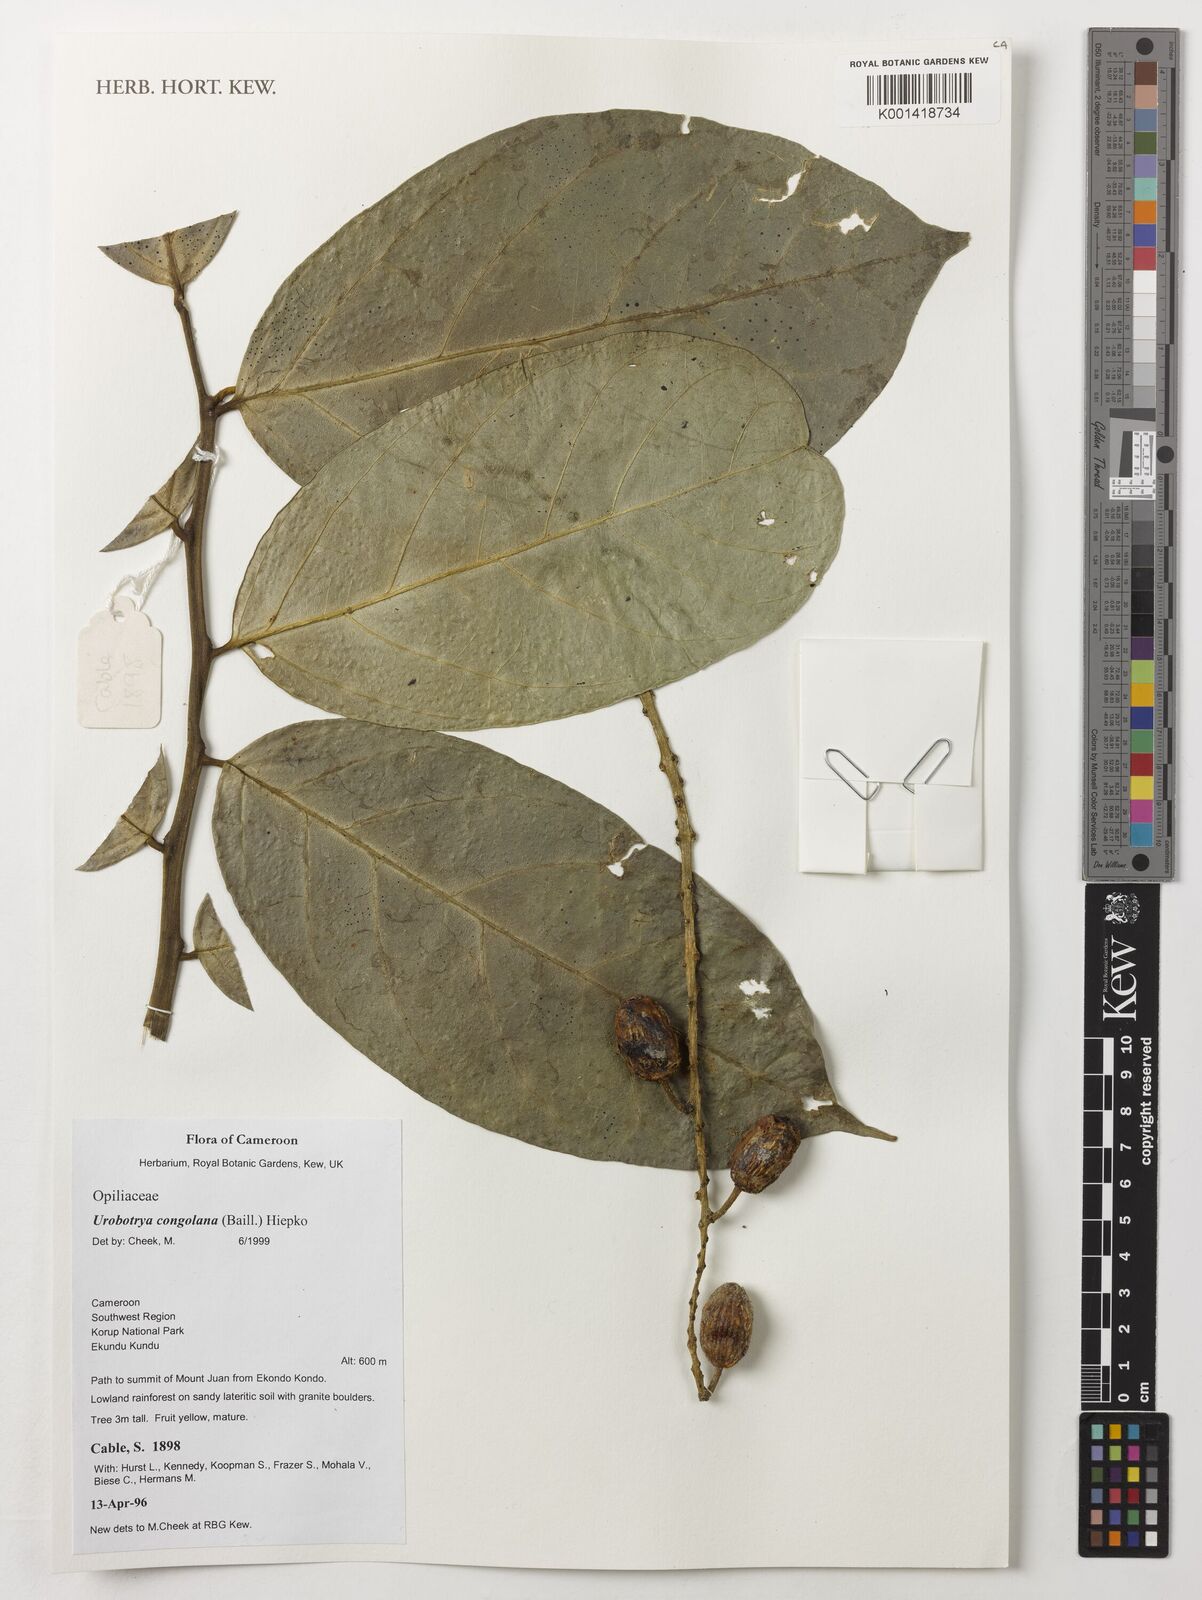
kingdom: Plantae
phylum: Tracheophyta
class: Magnoliopsida
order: Santalales
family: Opiliaceae
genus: Urobotrya
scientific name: Urobotrya congolana
